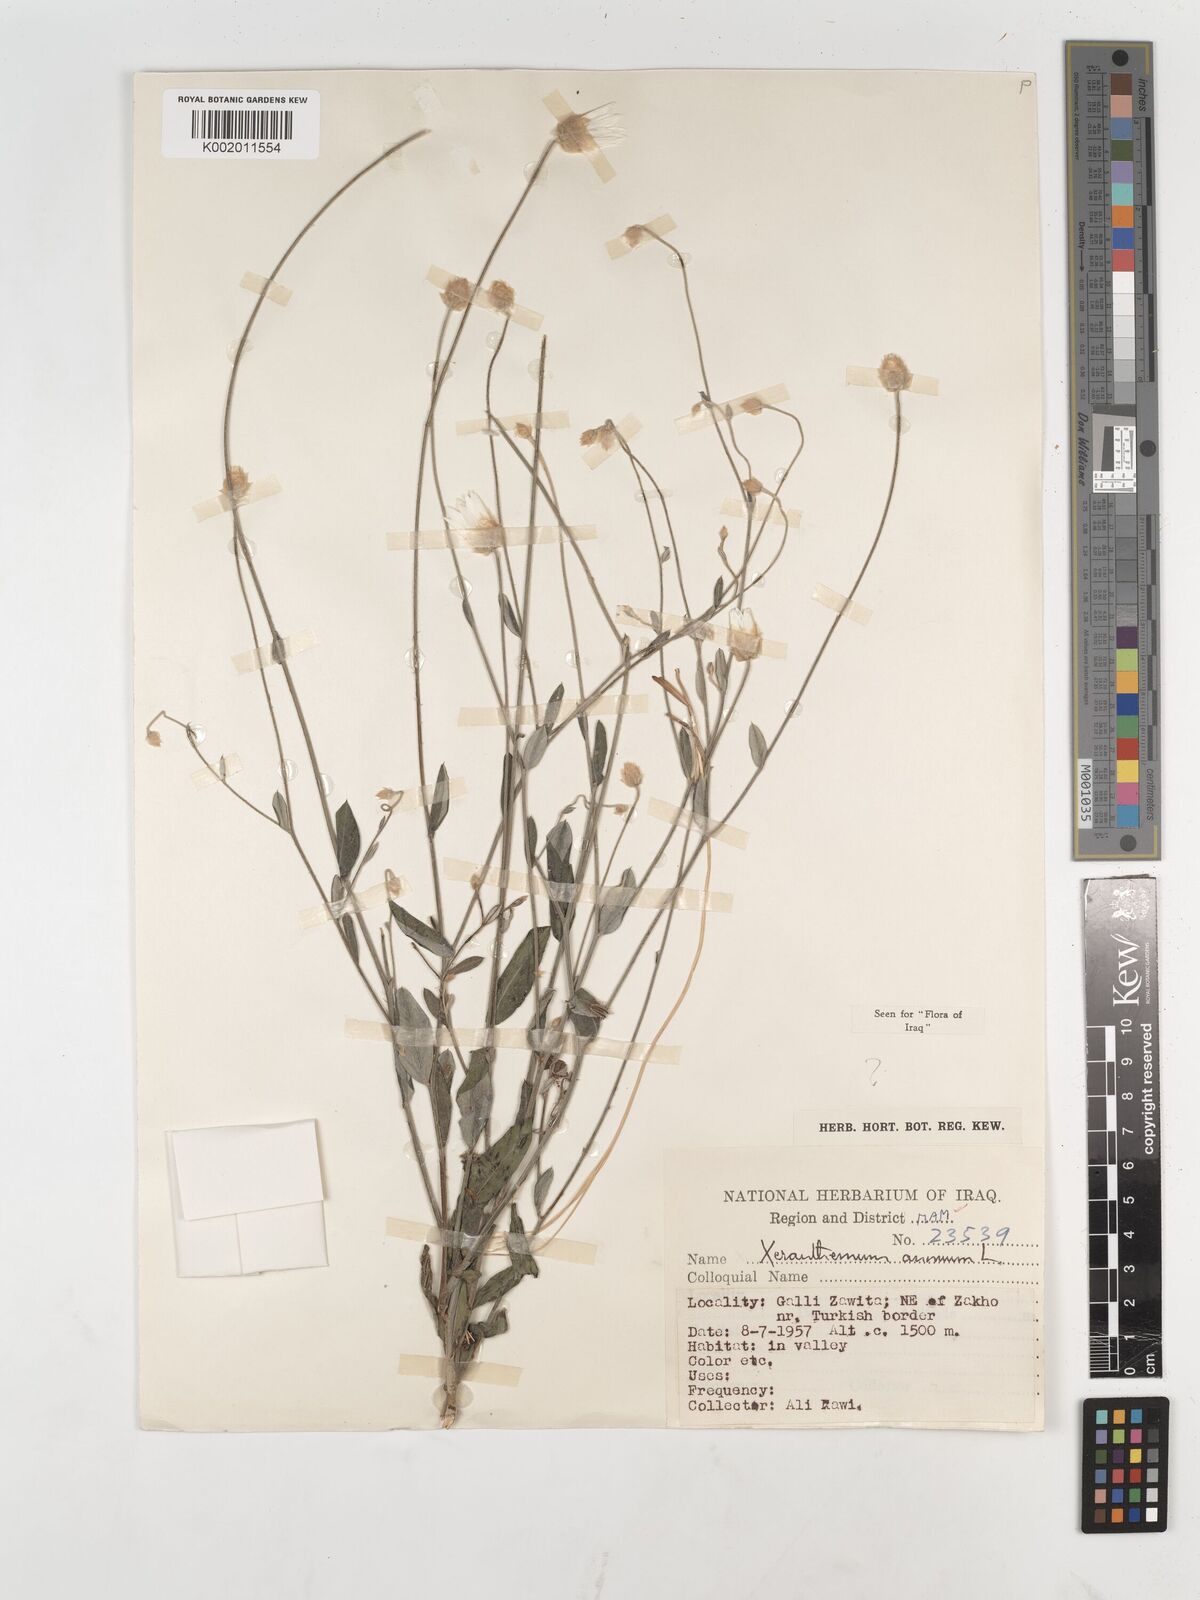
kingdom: Plantae
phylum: Tracheophyta
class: Magnoliopsida
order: Asterales
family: Asteraceae
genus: Xeranthemum
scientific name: Xeranthemum annuum
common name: Immortelle
